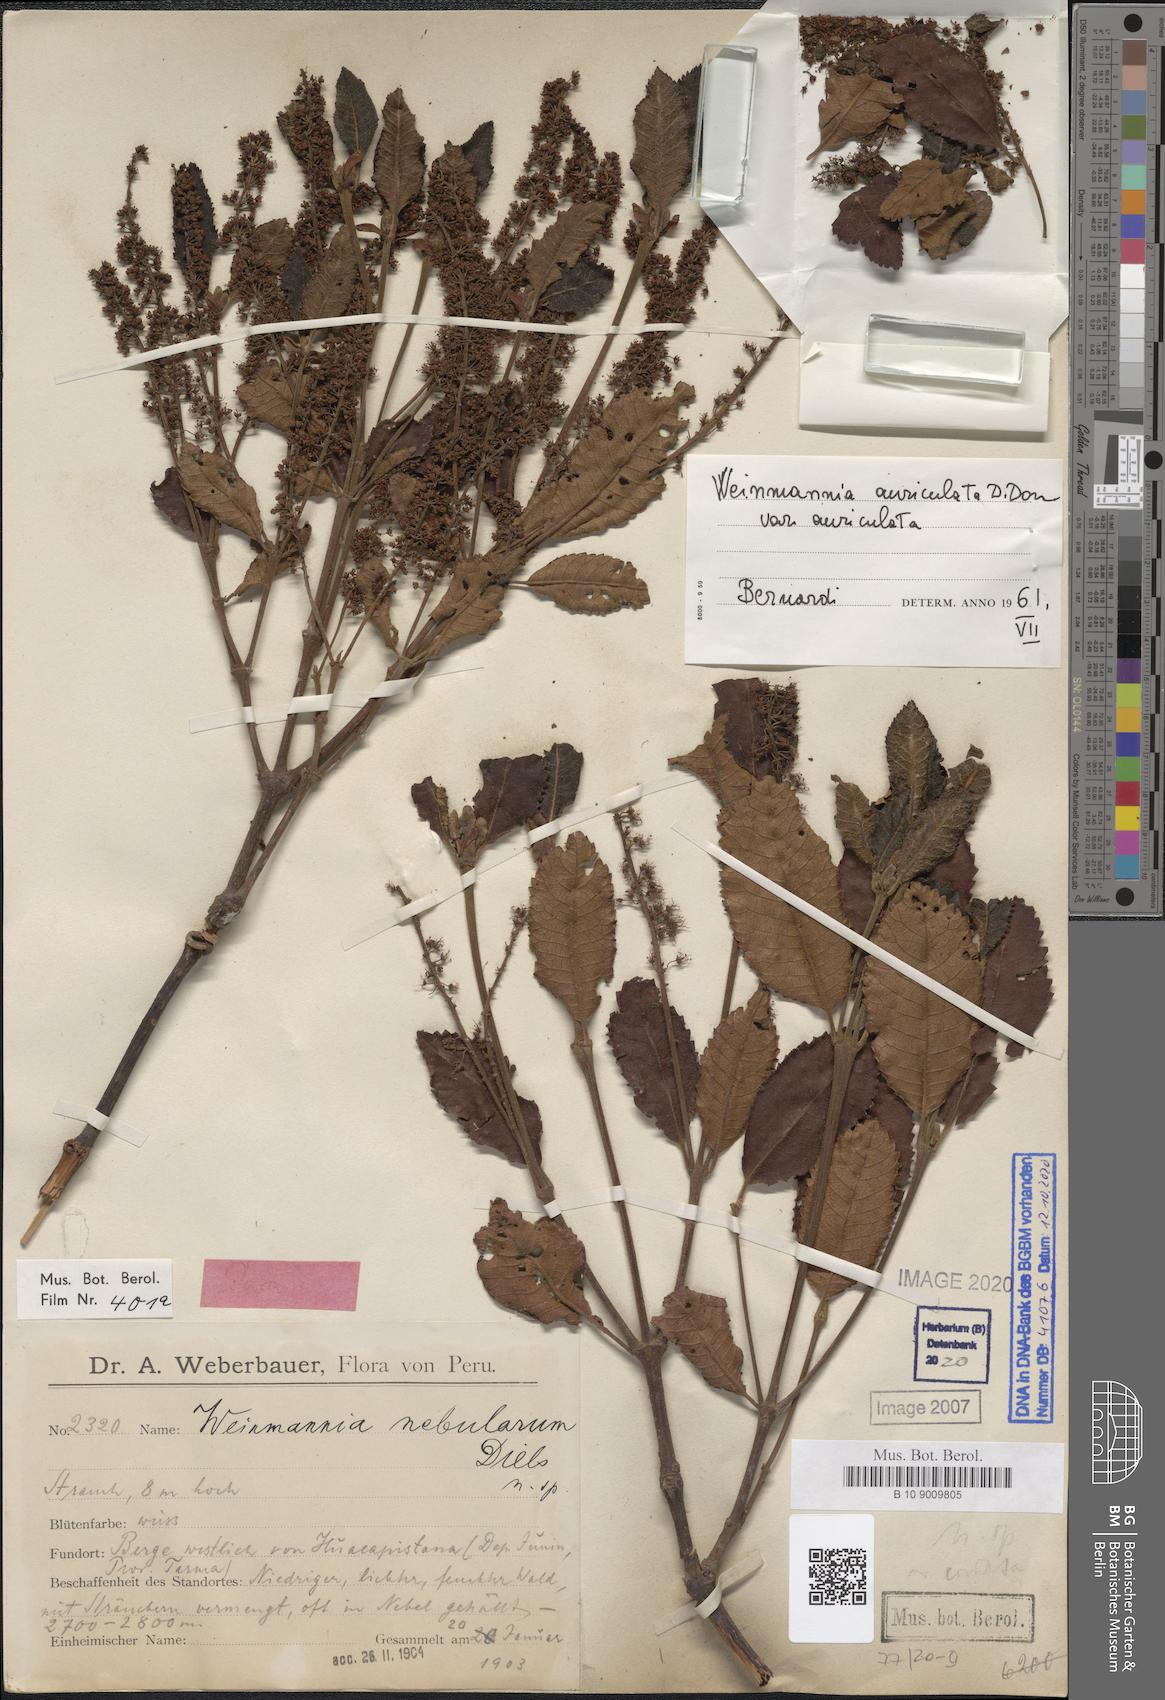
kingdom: Plantae
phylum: Tracheophyta
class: Magnoliopsida
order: Oxalidales
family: Cunoniaceae
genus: Weinmannia
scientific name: Weinmannia auriculata
